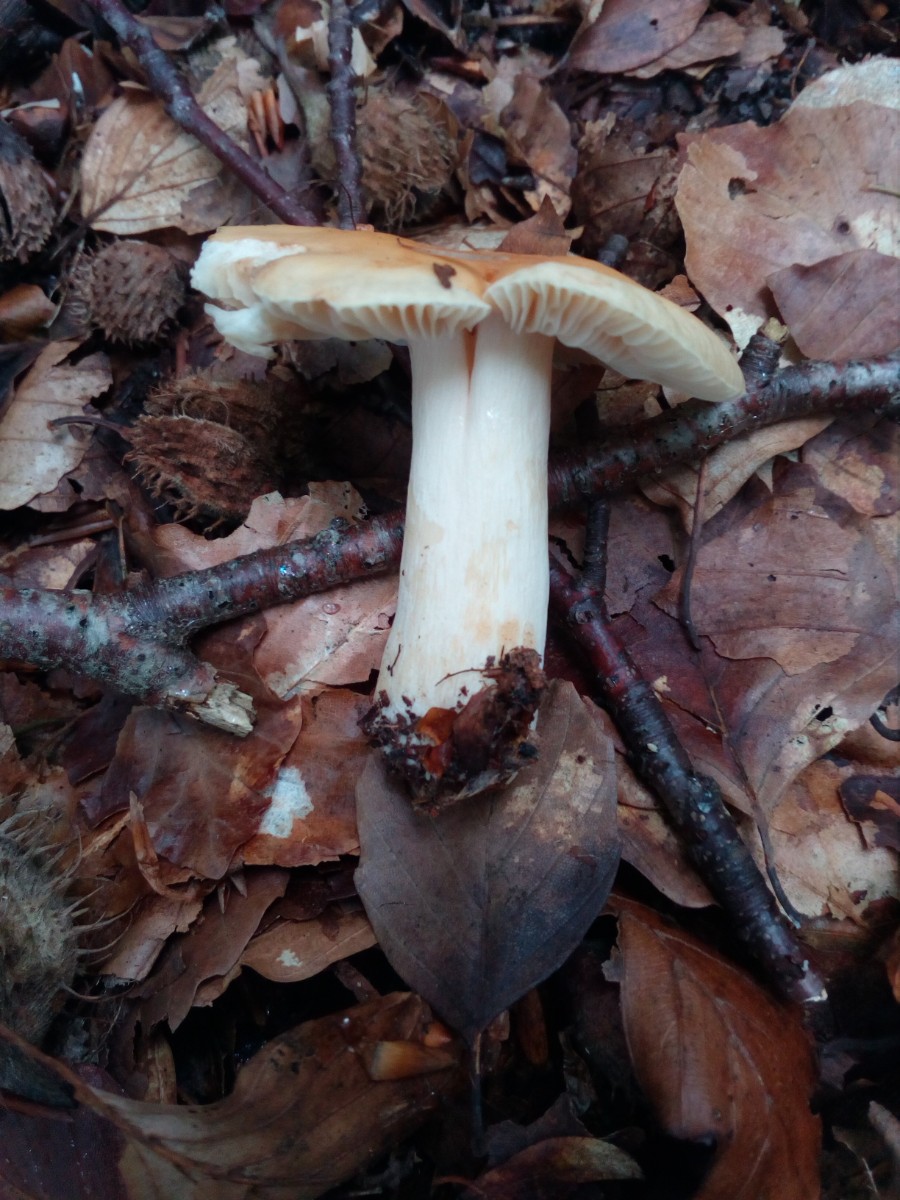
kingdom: Fungi
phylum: Basidiomycota
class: Agaricomycetes
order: Russulales
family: Russulaceae
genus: Russula
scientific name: Russula fellea
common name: galde-skørhat
